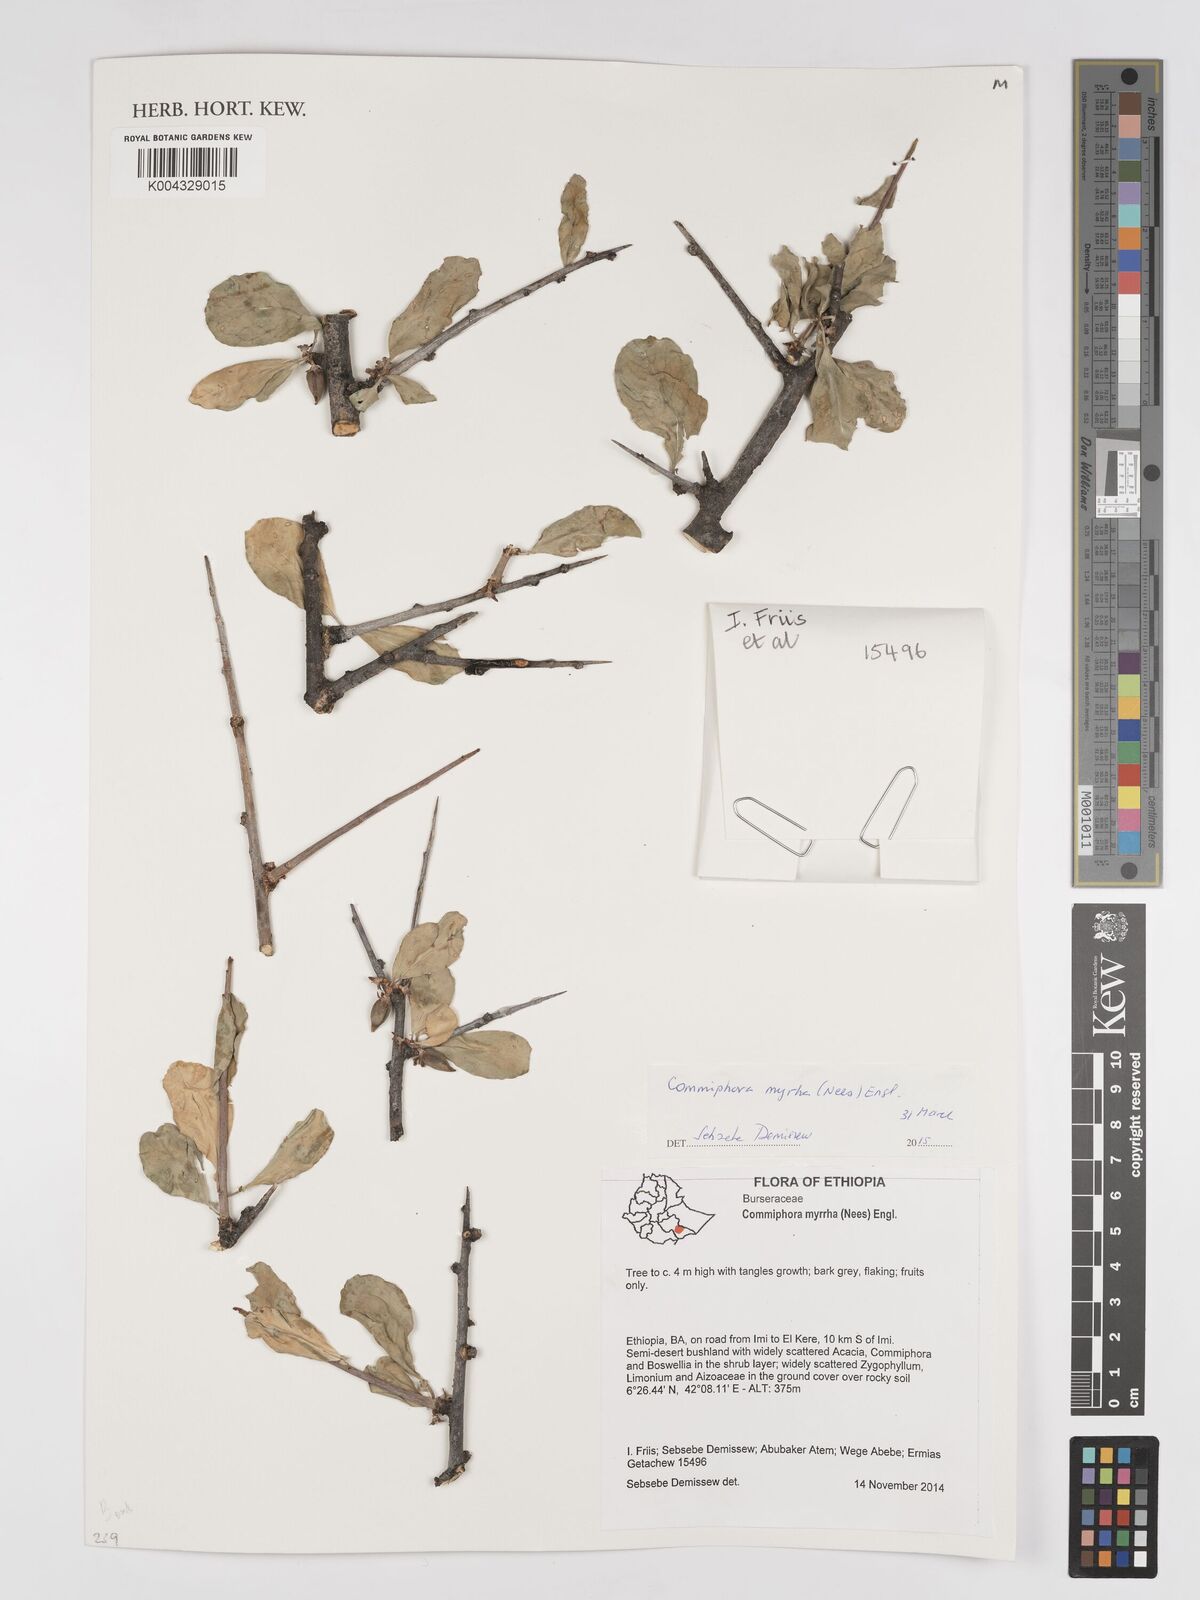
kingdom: Plantae
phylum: Tracheophyta
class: Magnoliopsida
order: Sapindales
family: Burseraceae
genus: Commiphora
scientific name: Commiphora myrrha
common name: African myrrh
